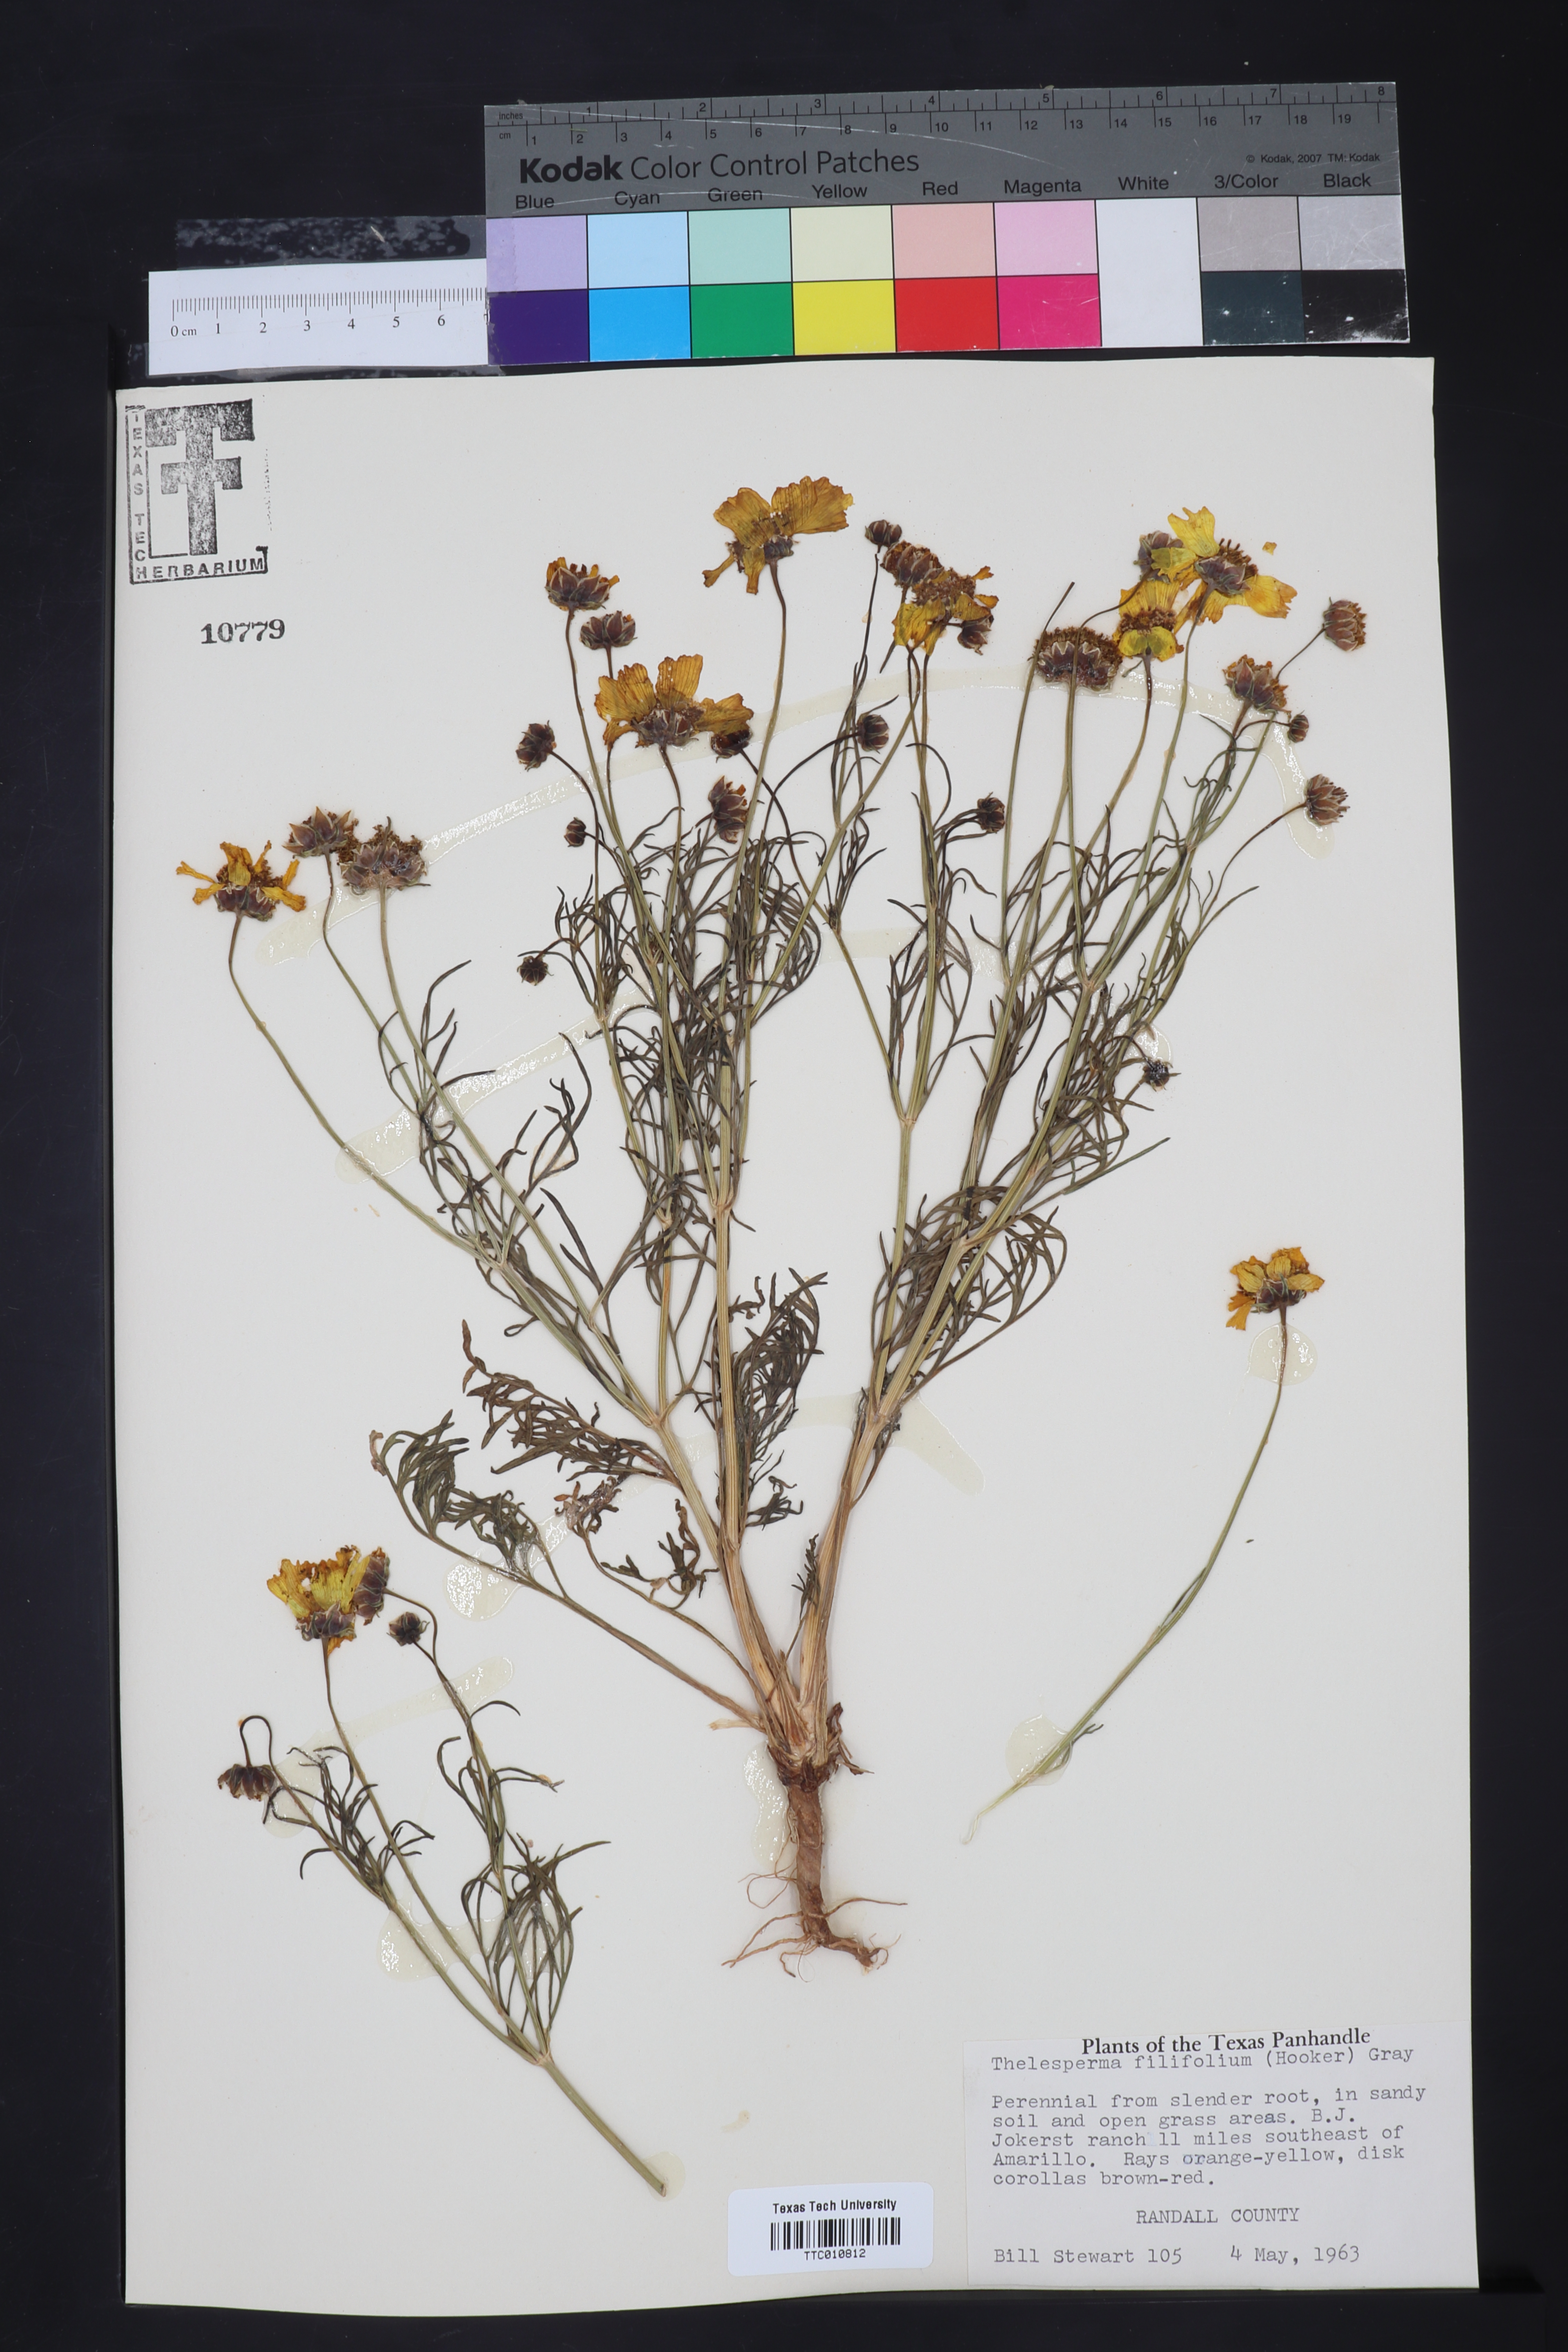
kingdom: Plantae
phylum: Tracheophyta
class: Magnoliopsida
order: Asterales
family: Asteraceae
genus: Thelesperma
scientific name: Thelesperma filifolium
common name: Stiff greenthread
